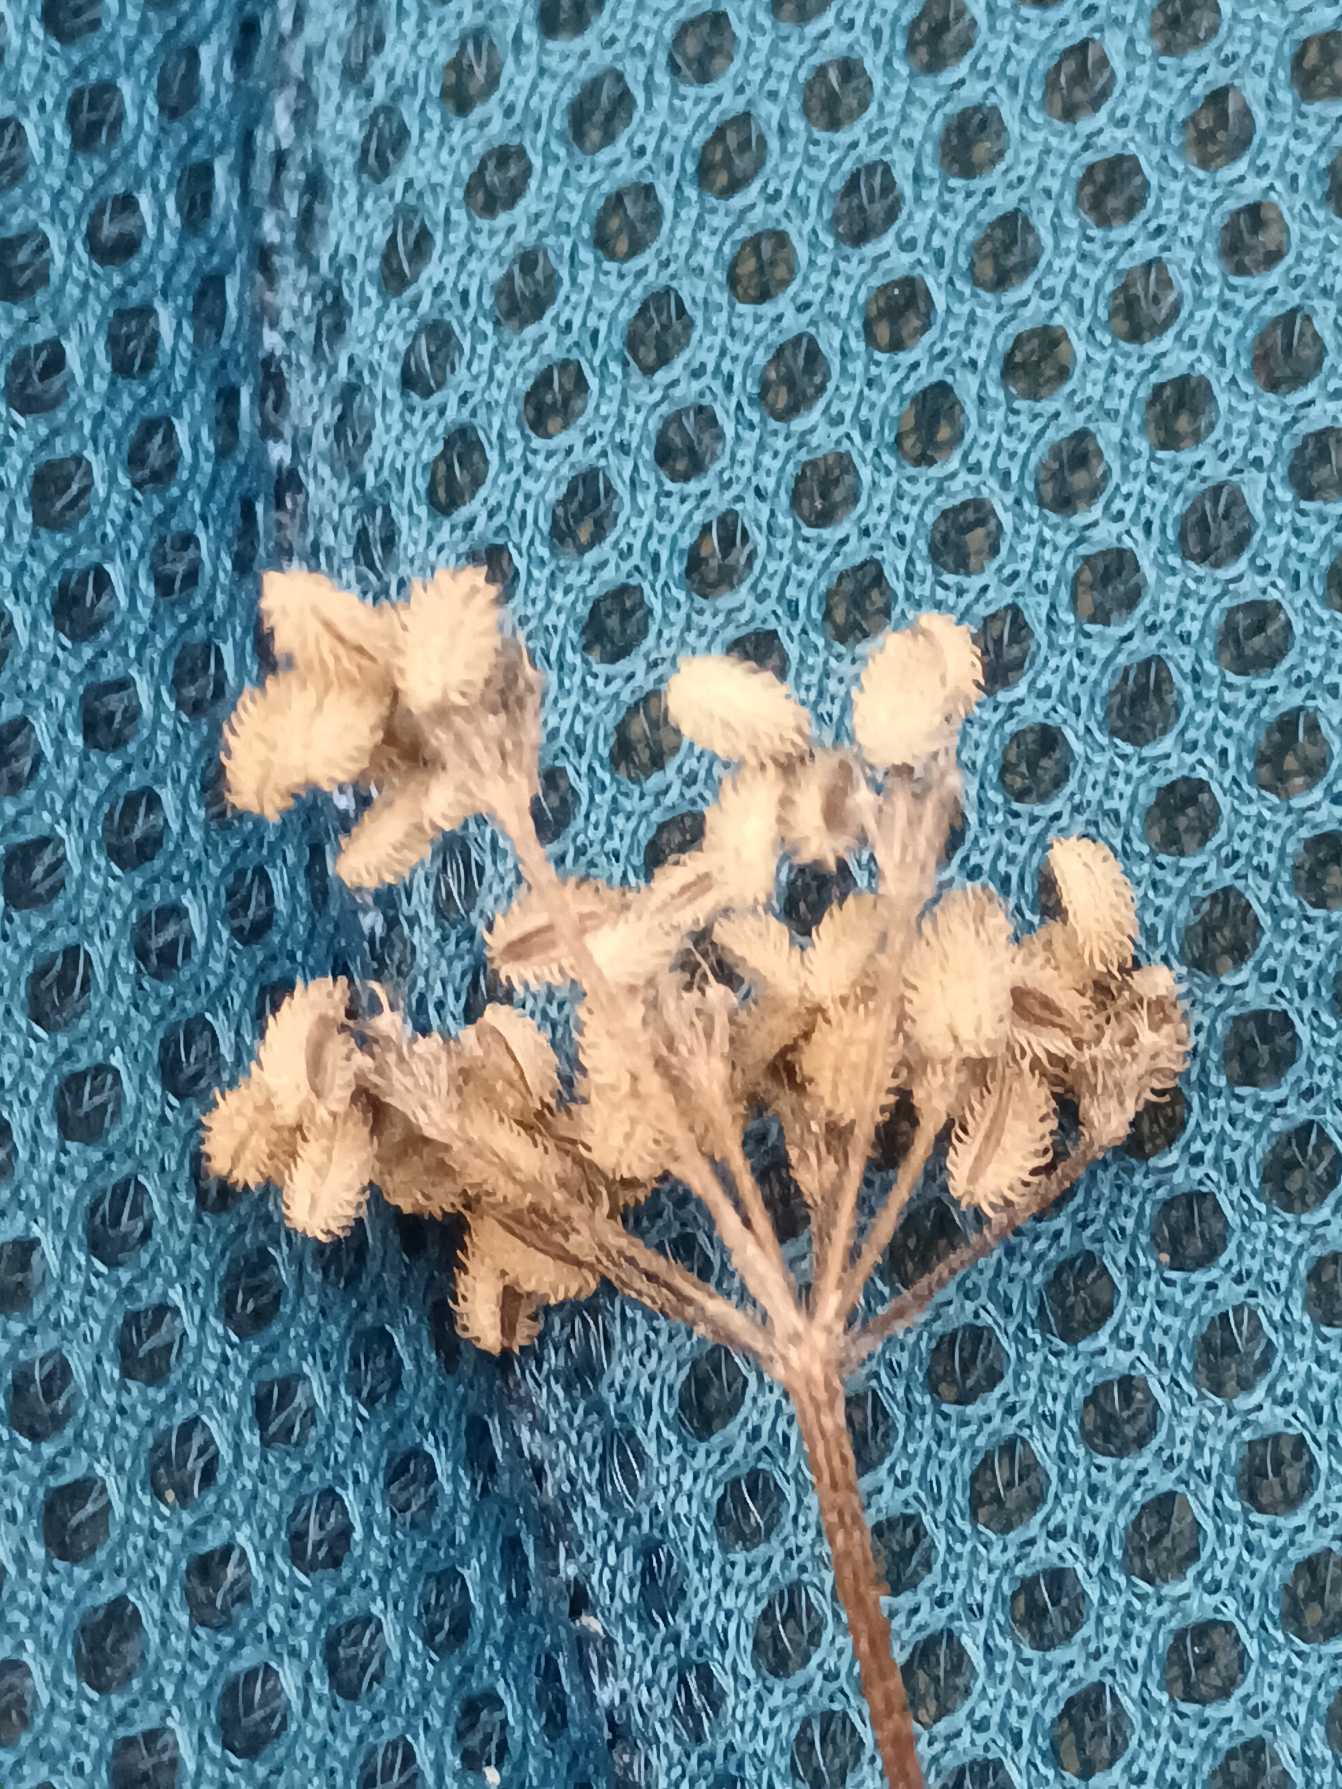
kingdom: Plantae
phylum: Tracheophyta
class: Magnoliopsida
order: Apiales
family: Apiaceae
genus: Torilis
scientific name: Torilis japonica
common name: Hvas randfrø
